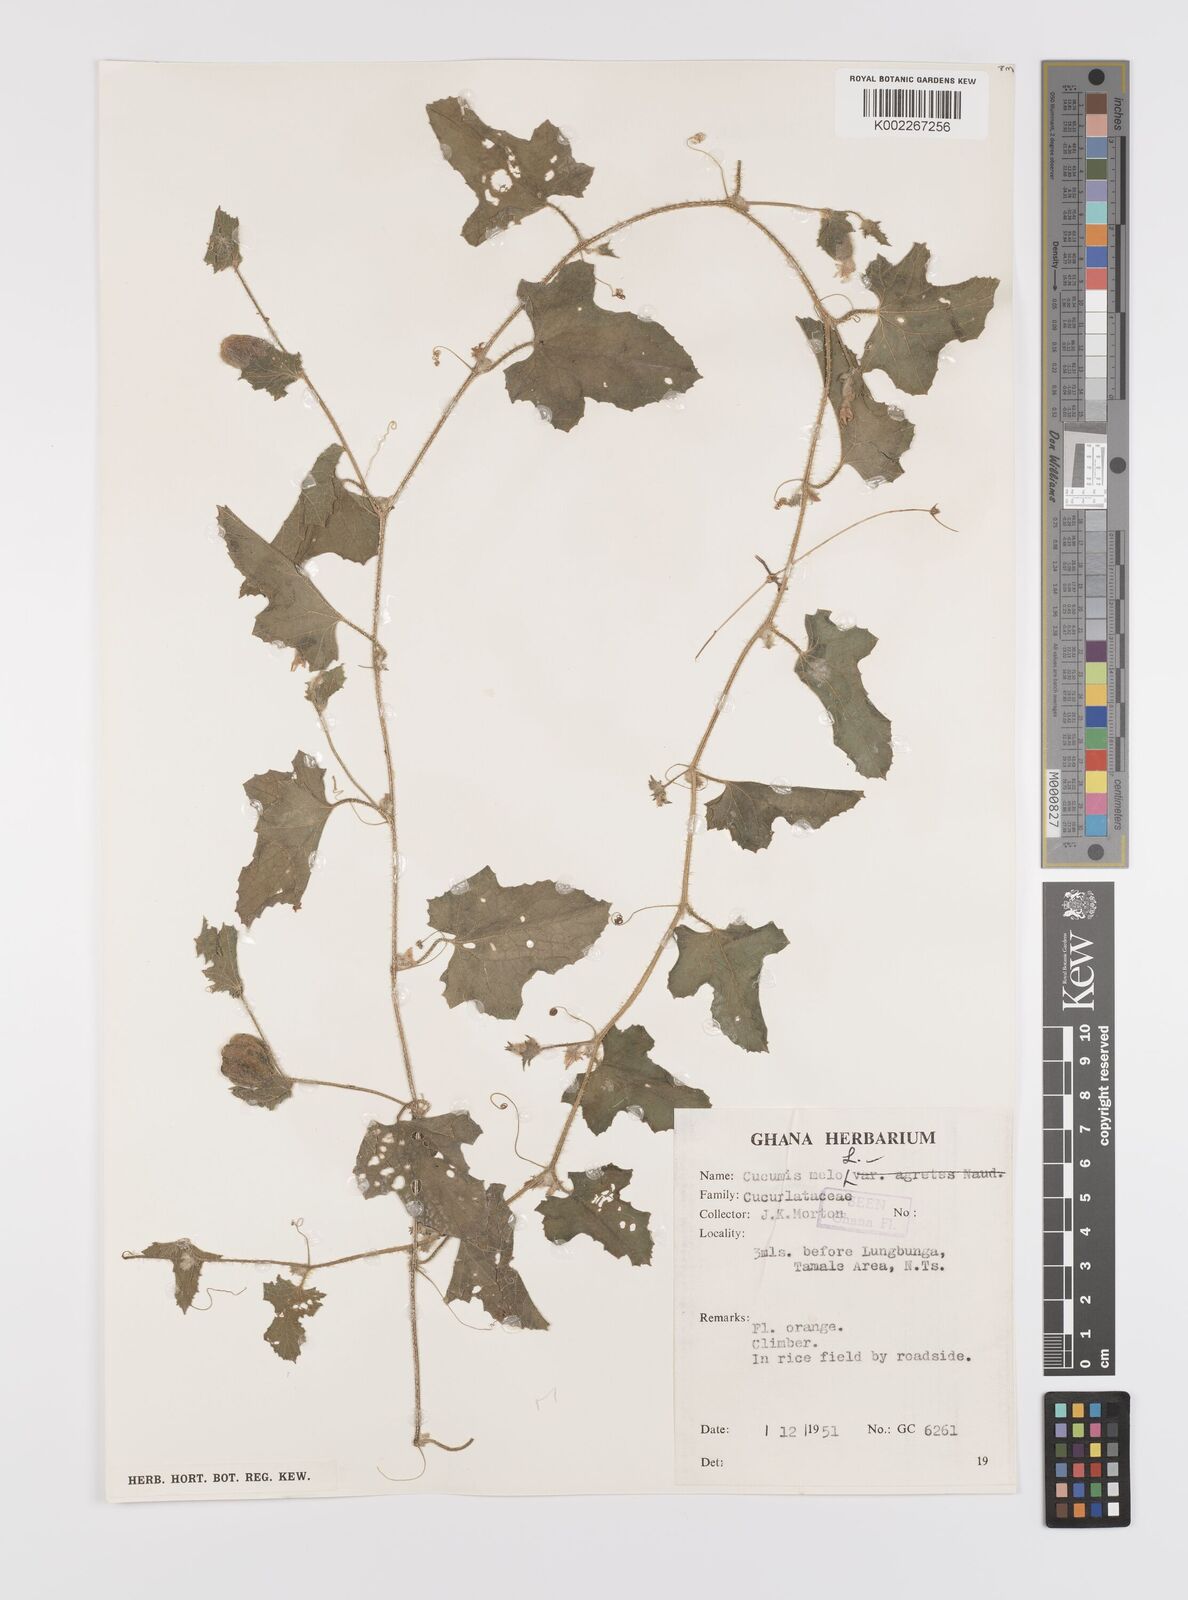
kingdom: Plantae
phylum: Tracheophyta
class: Magnoliopsida
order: Cucurbitales
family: Cucurbitaceae
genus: Cucumis
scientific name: Cucumis melo
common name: Melon
